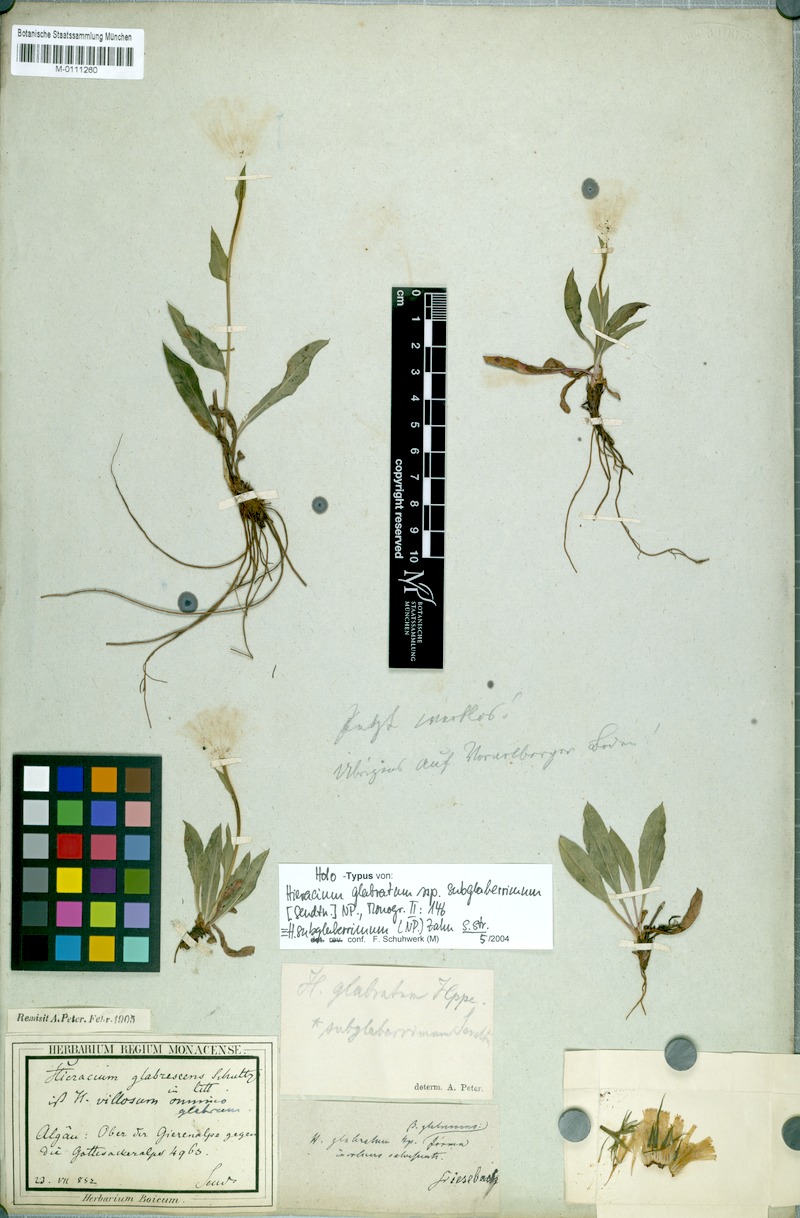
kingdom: Plantae
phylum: Tracheophyta
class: Magnoliopsida
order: Asterales
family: Asteraceae
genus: Hieracium
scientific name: Hieracium subglaberrimum
